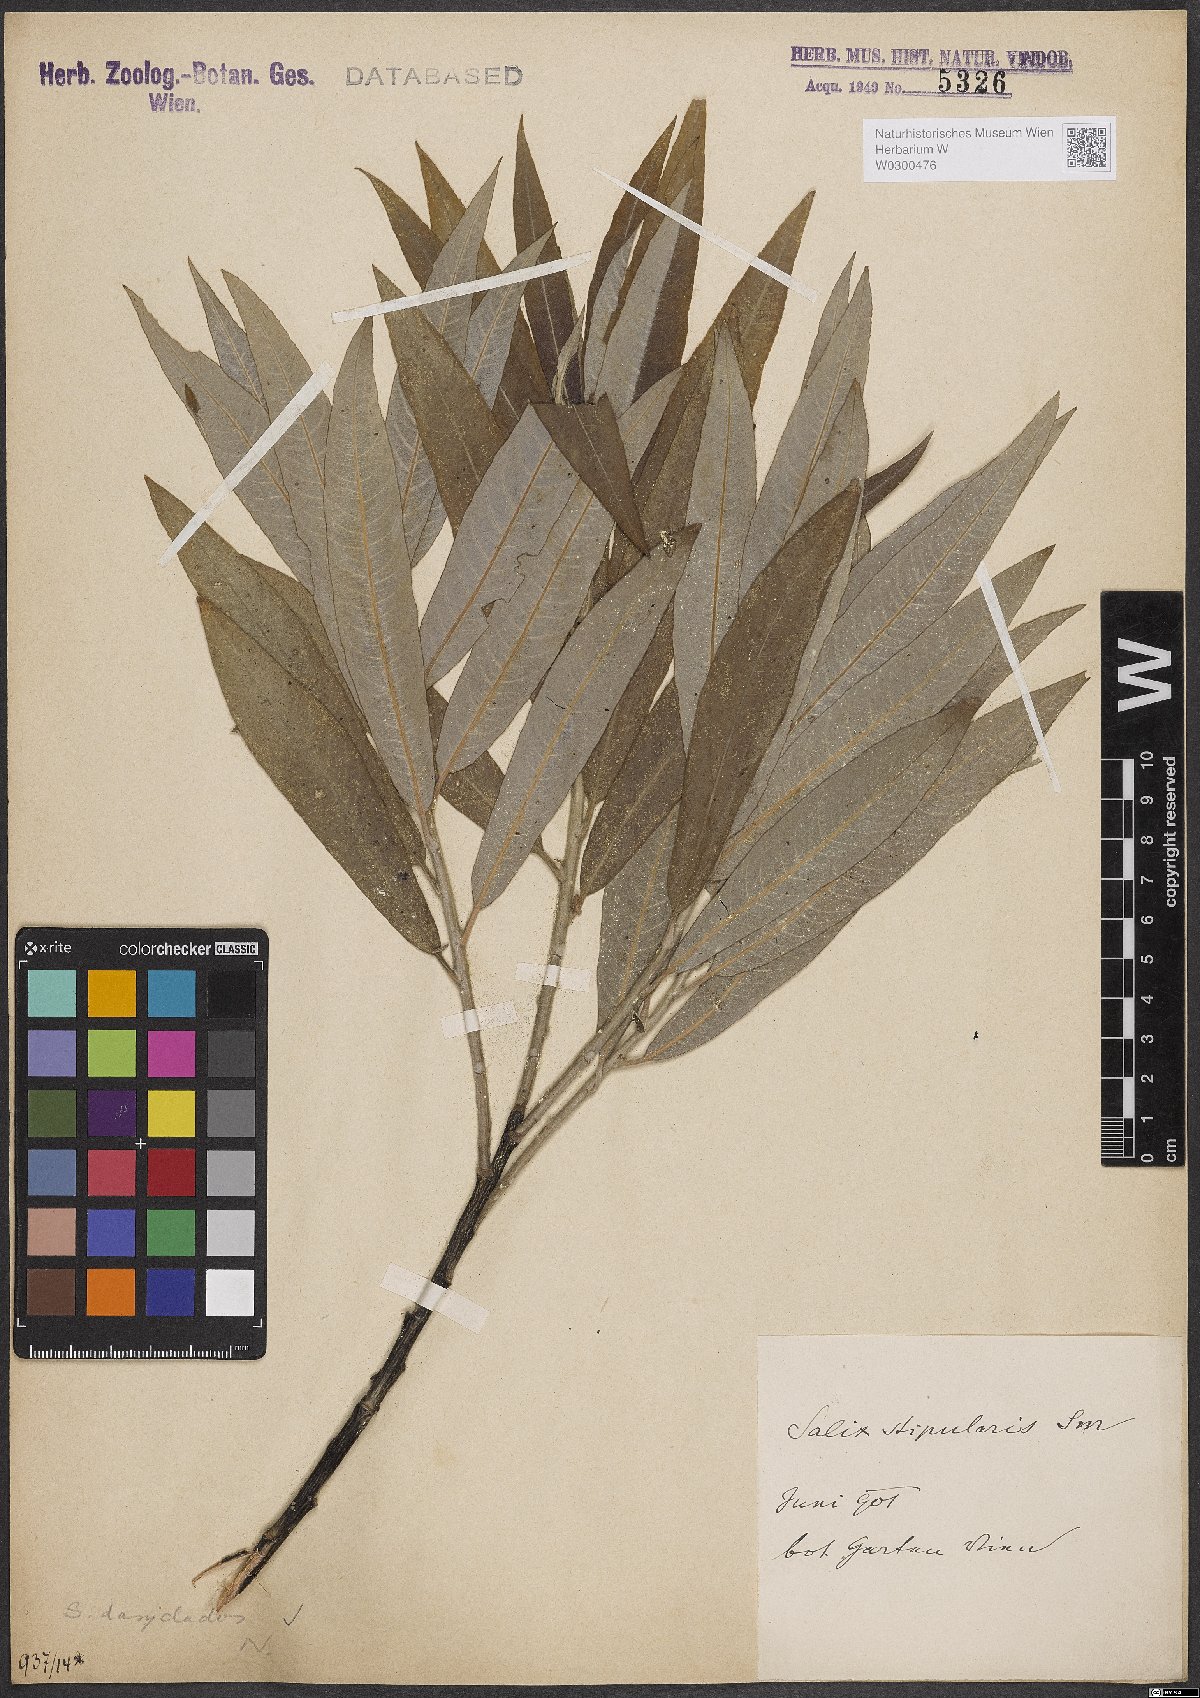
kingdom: Plantae
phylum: Tracheophyta
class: Magnoliopsida
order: Malpighiales
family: Salicaceae
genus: Salix
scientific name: Salix gmelinii
